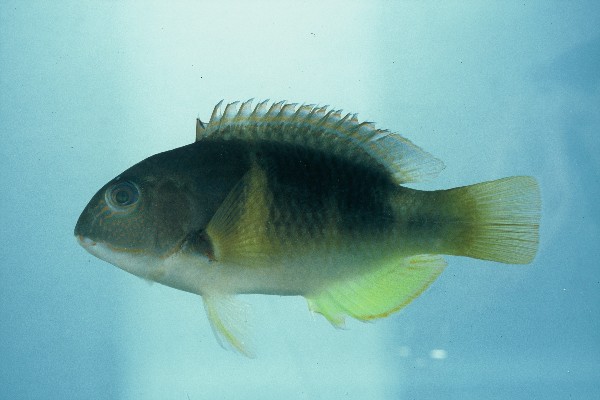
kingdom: Animalia
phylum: Chordata
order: Perciformes
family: Labridae
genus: Choerodon
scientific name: Choerodon anchorago
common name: Anchor tuskfish
